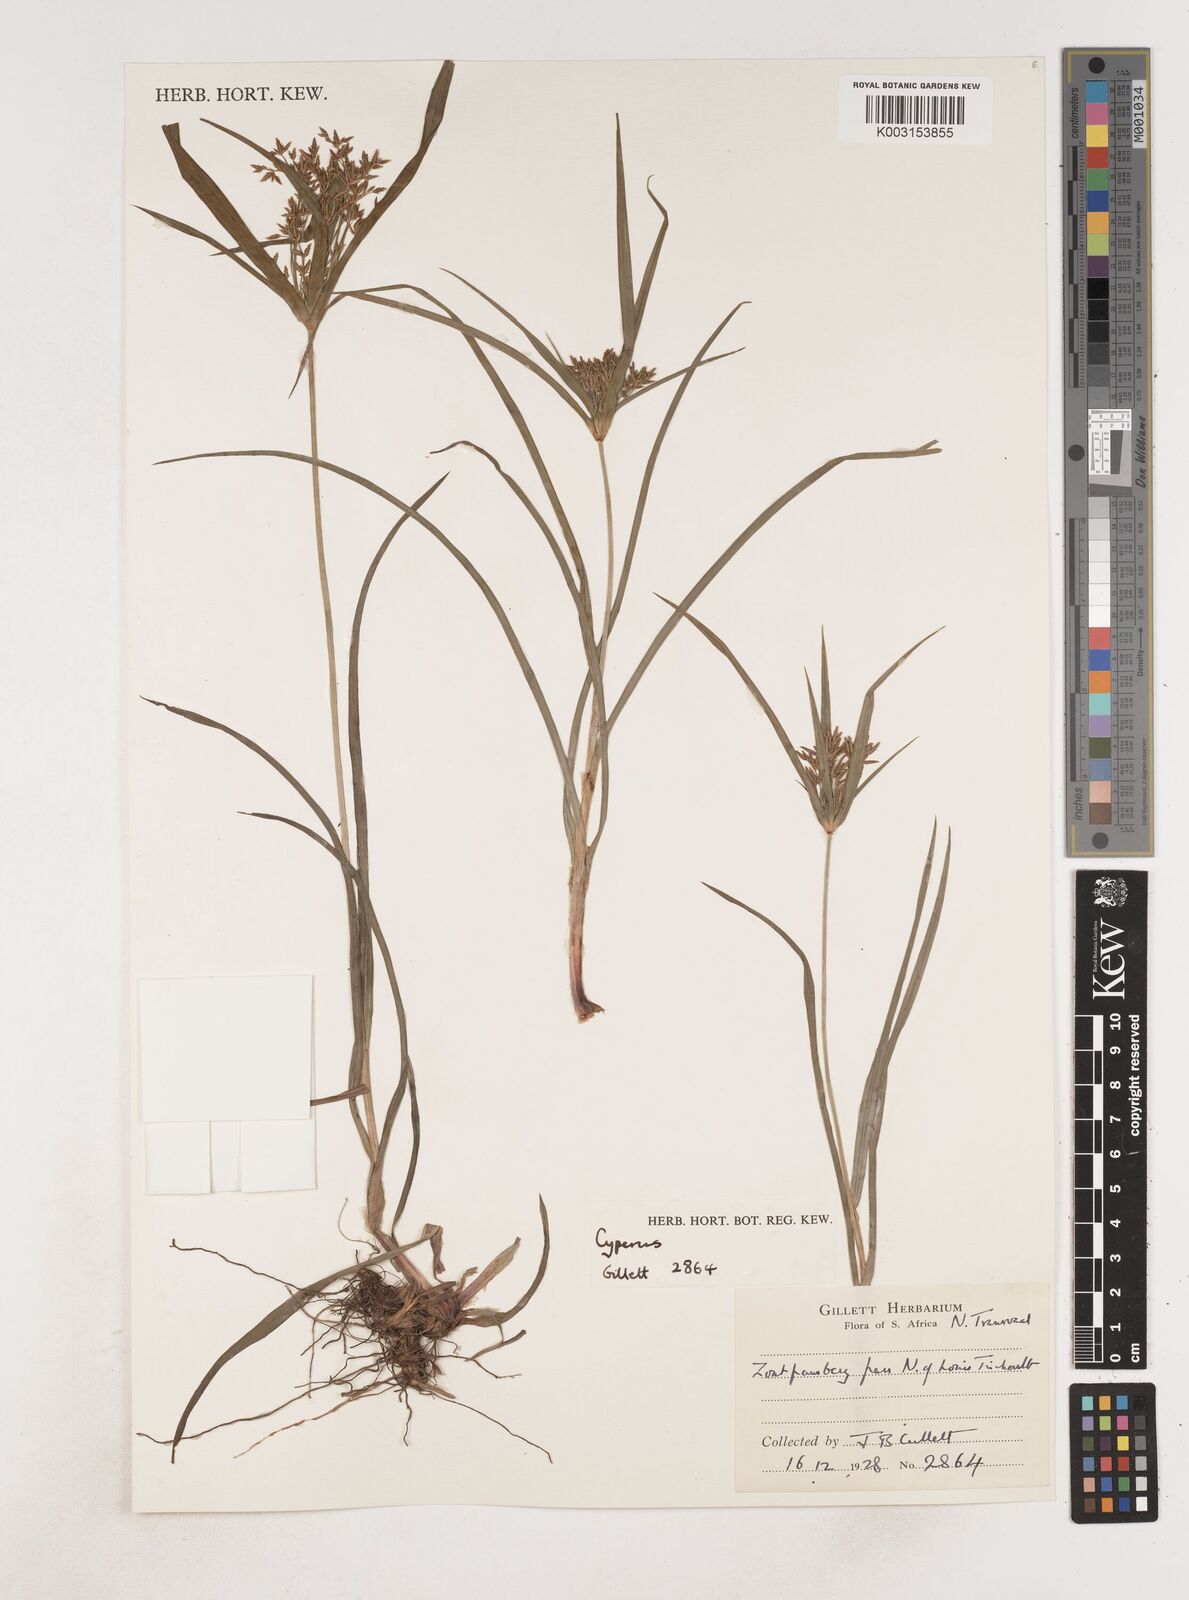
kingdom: Plantae
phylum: Tracheophyta
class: Liliopsida
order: Poales
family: Cyperaceae
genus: Cyperus
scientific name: Cyperus
